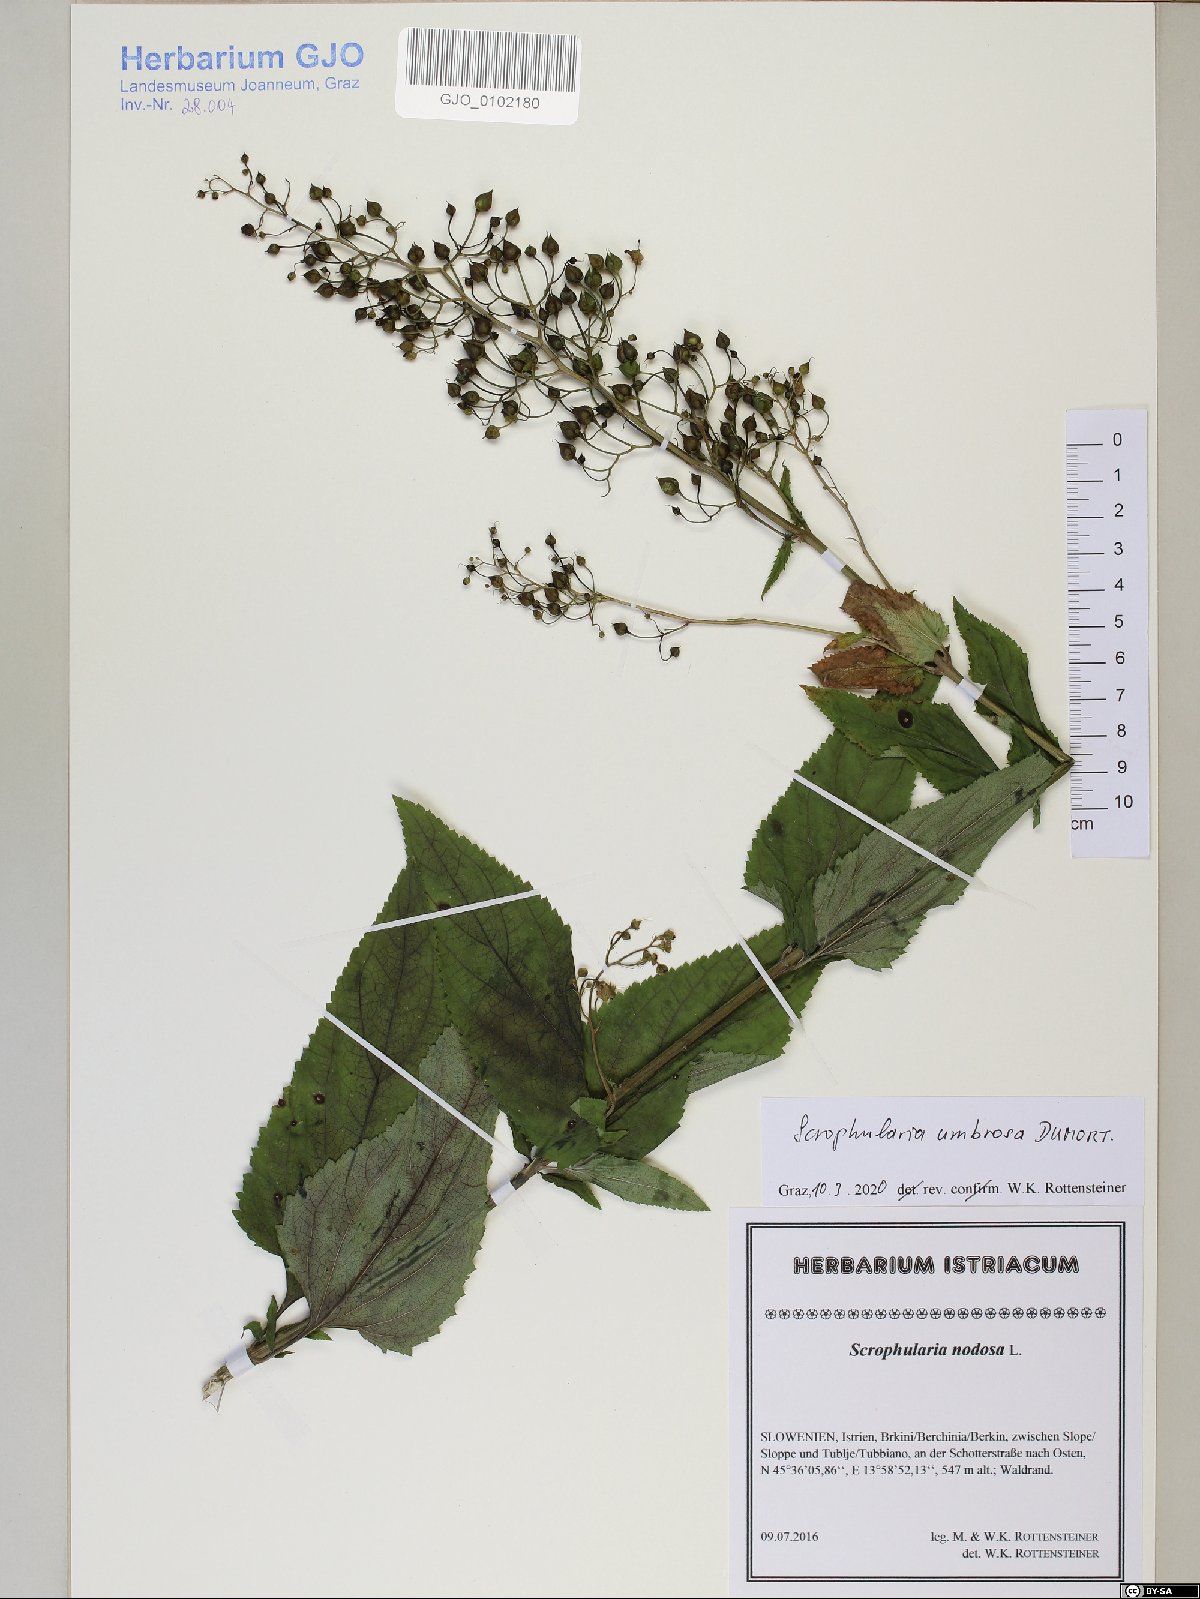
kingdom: Plantae
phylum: Tracheophyta
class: Magnoliopsida
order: Lamiales
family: Scrophulariaceae
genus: Scrophularia
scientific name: Scrophularia umbrosa
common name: Green figwort
